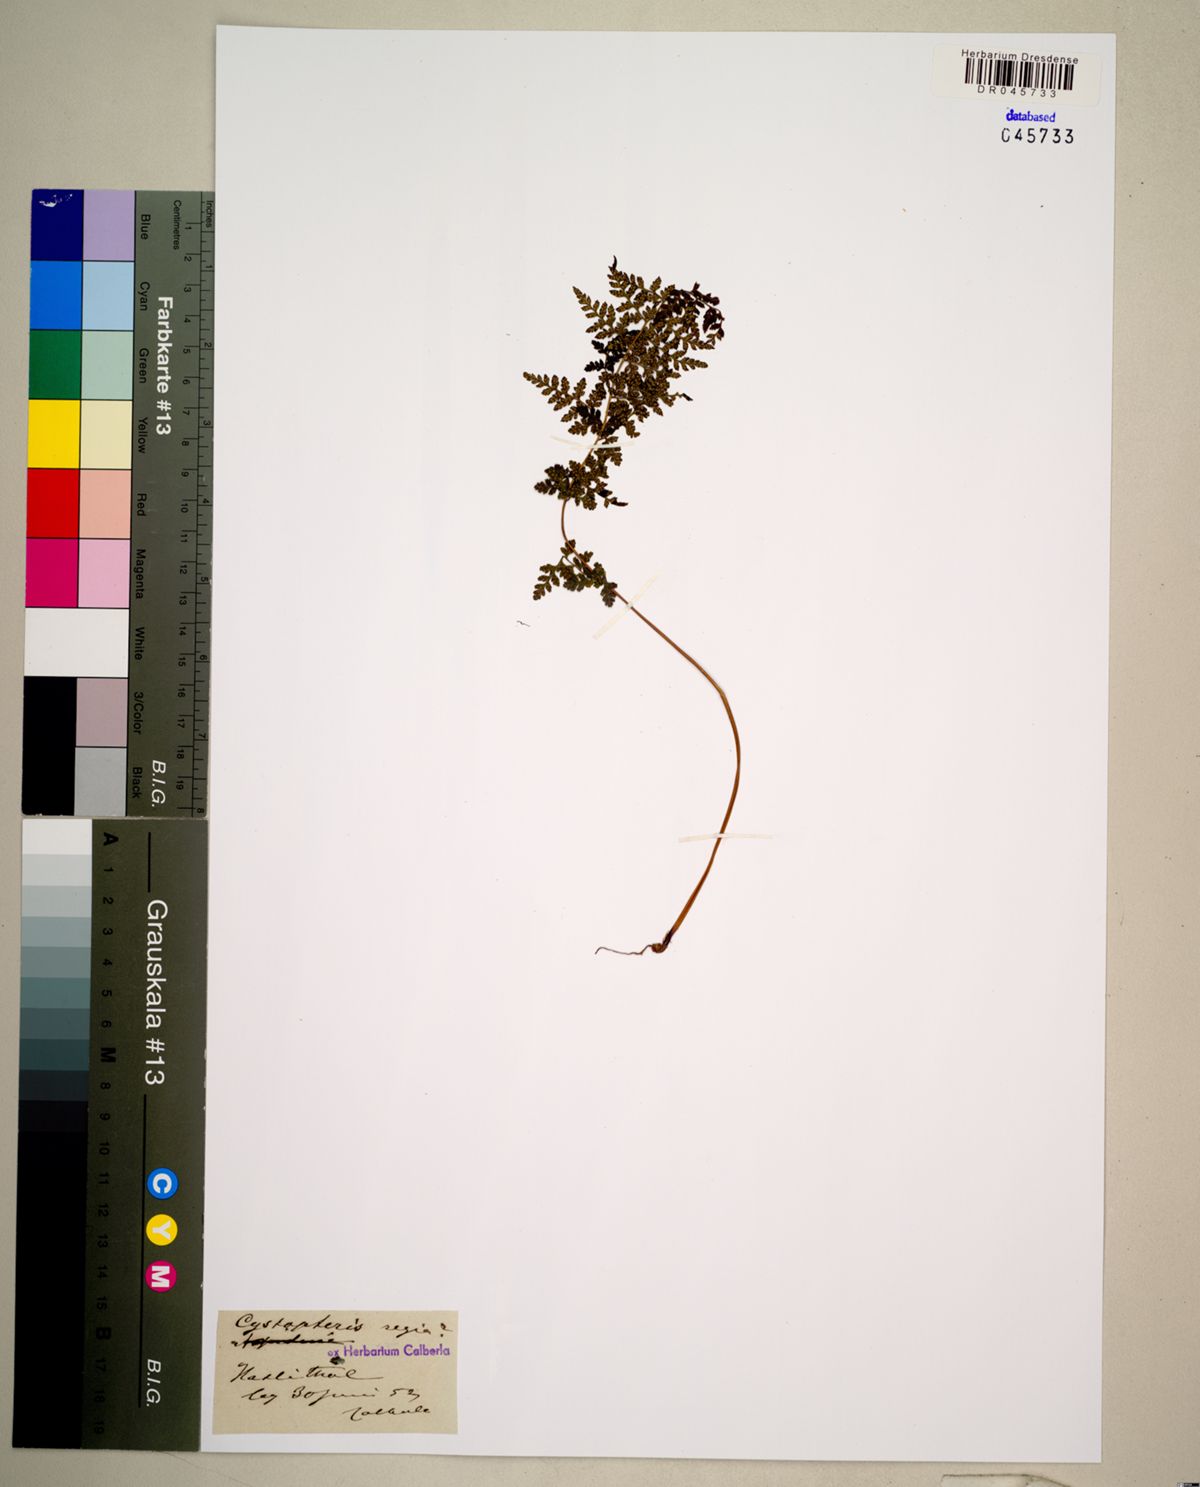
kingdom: Plantae
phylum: Tracheophyta
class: Polypodiopsida
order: Polypodiales
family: Cystopteridaceae
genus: Cystopteris
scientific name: Cystopteris fragilis
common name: Brittle bladder fern
